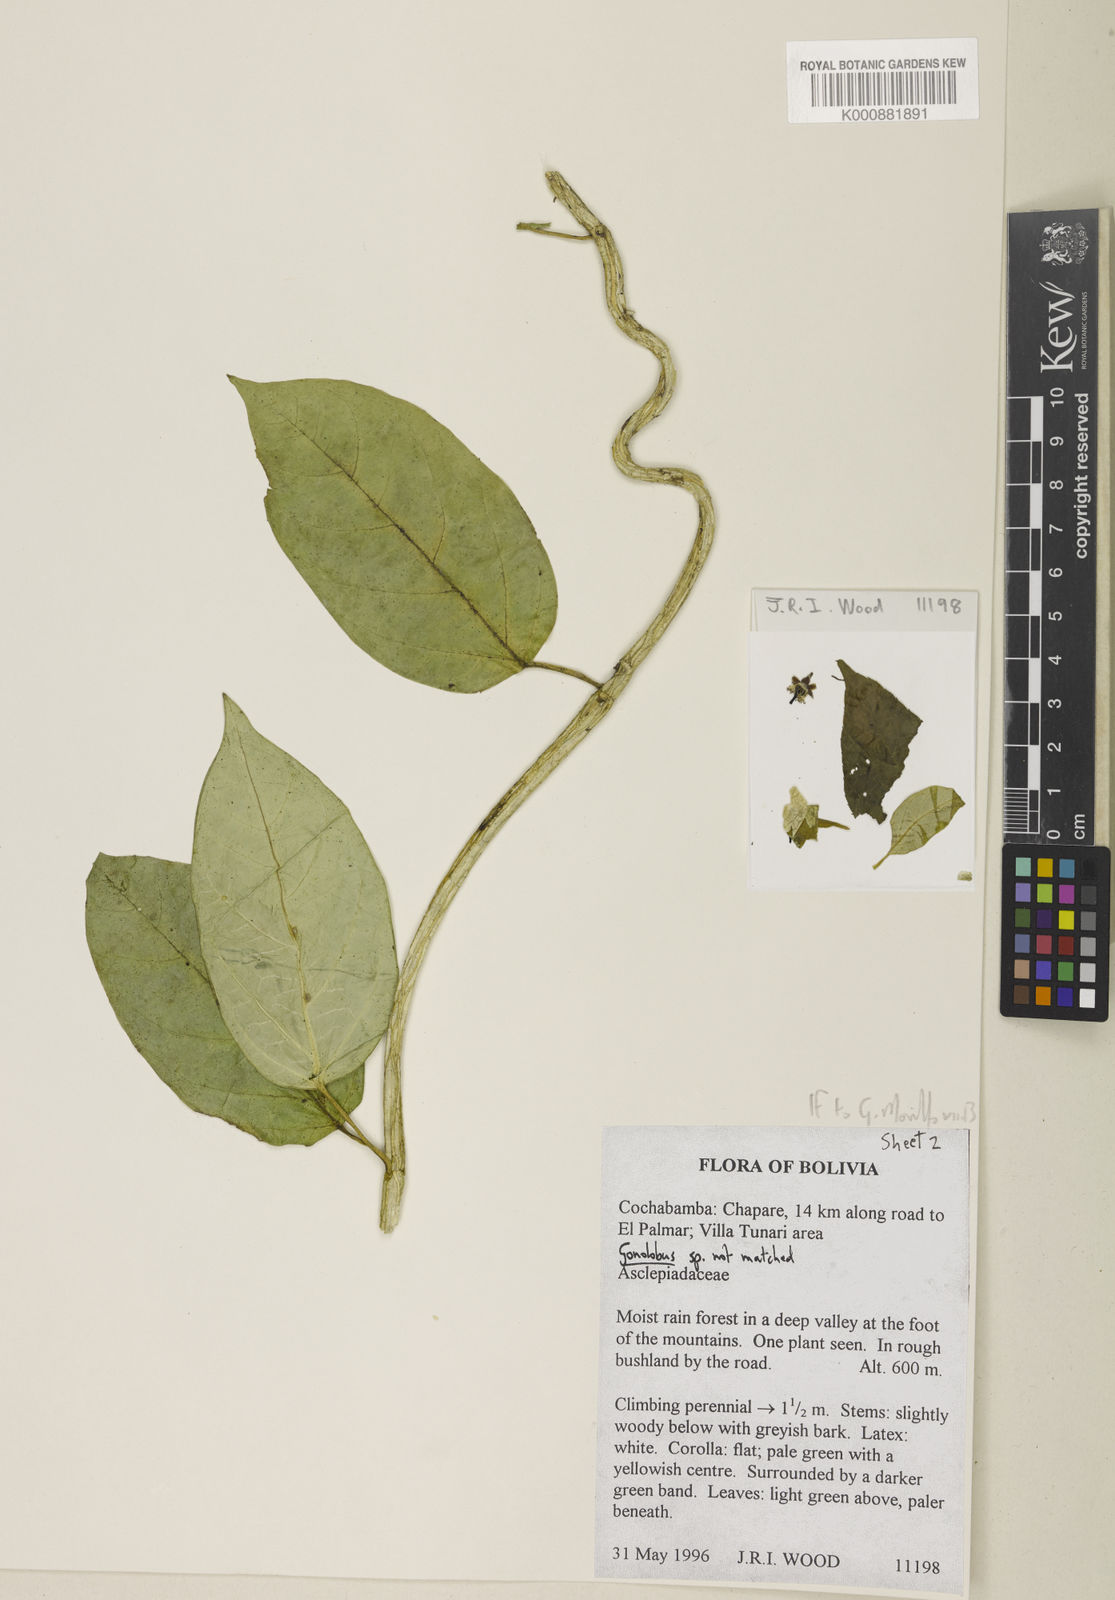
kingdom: Plantae
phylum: Tracheophyta
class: Magnoliopsida
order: Gentianales
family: Apocynaceae
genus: Matelea
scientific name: Matelea glandulosa
